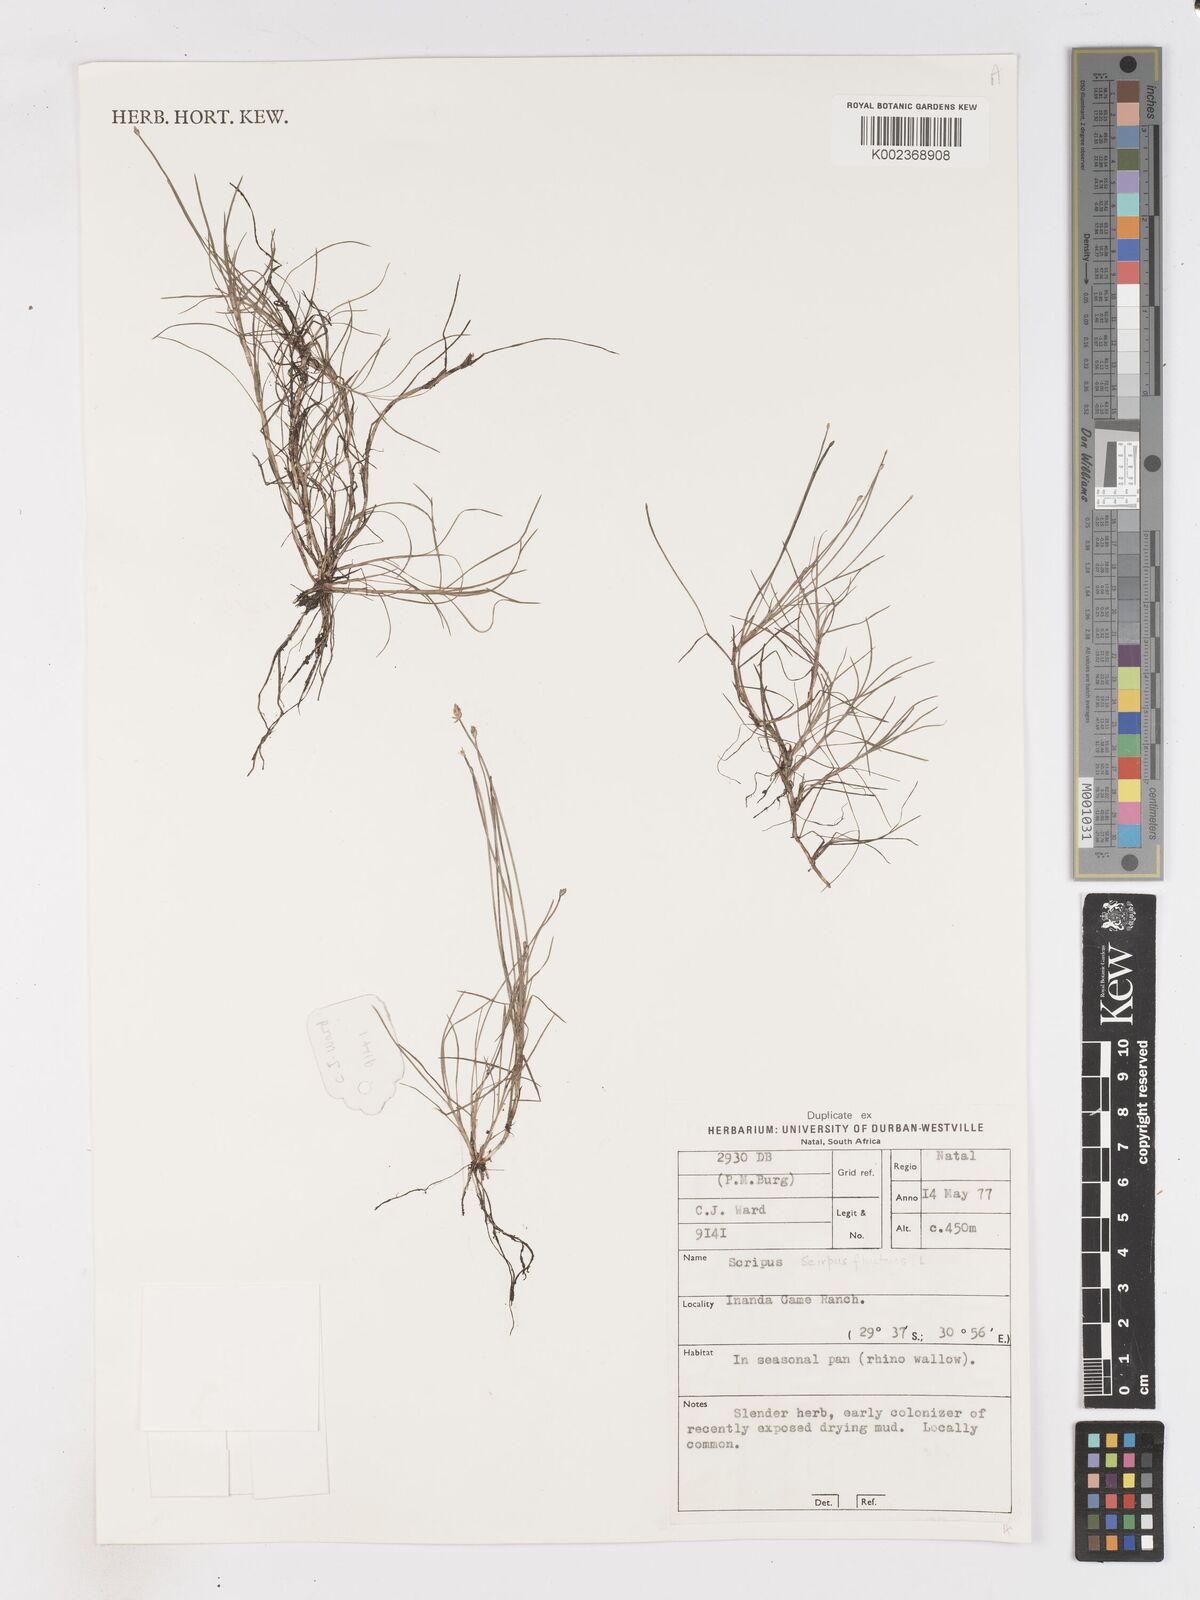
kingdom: Plantae
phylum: Tracheophyta
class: Liliopsida
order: Poales
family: Cyperaceae
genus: Isolepis
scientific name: Isolepis
